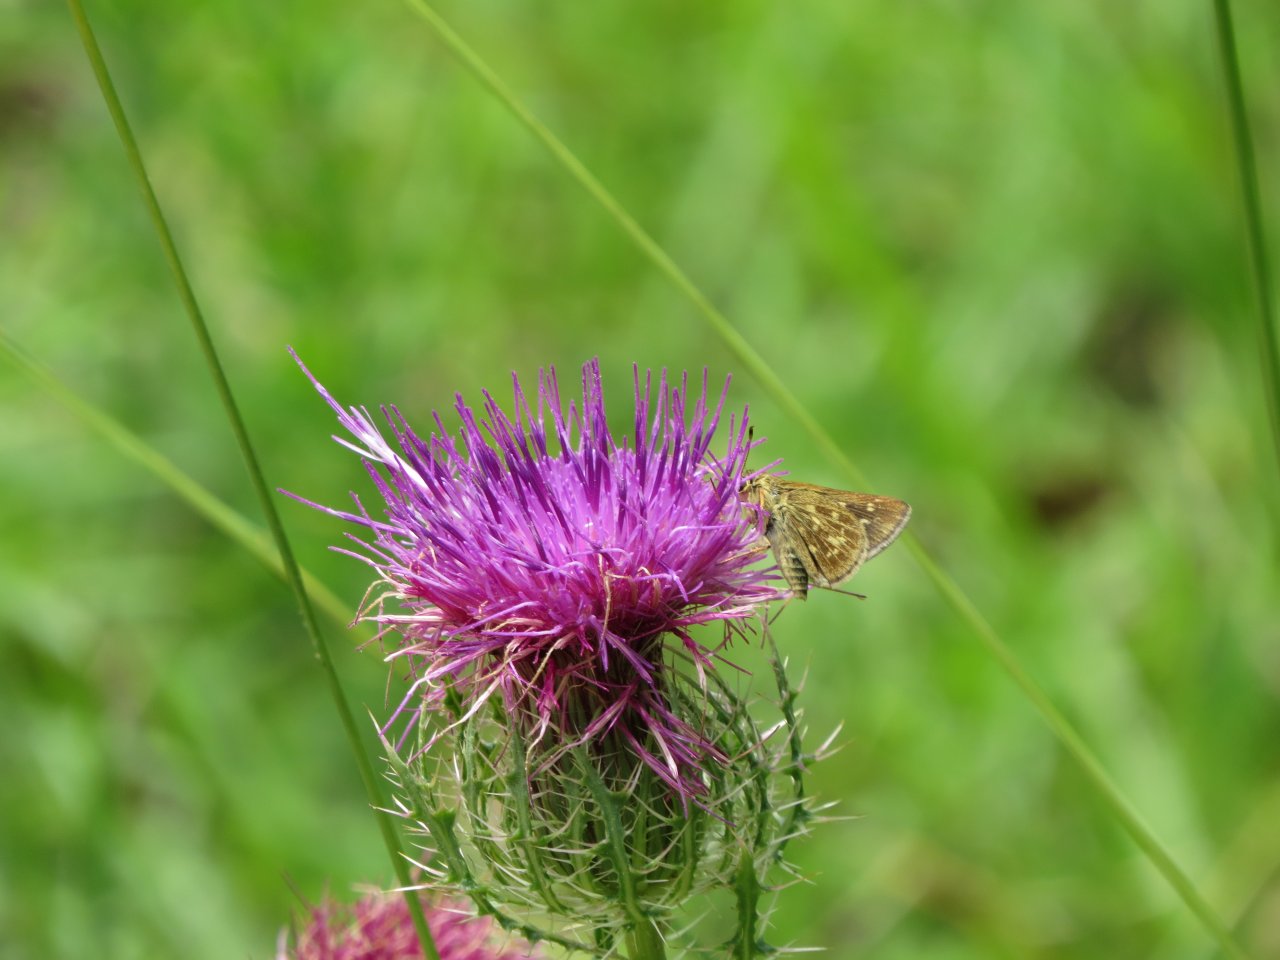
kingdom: Animalia
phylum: Arthropoda
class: Insecta
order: Lepidoptera
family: Hesperiidae
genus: Mastor
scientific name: Mastor carolina
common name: Reversed Roadside-skipper
